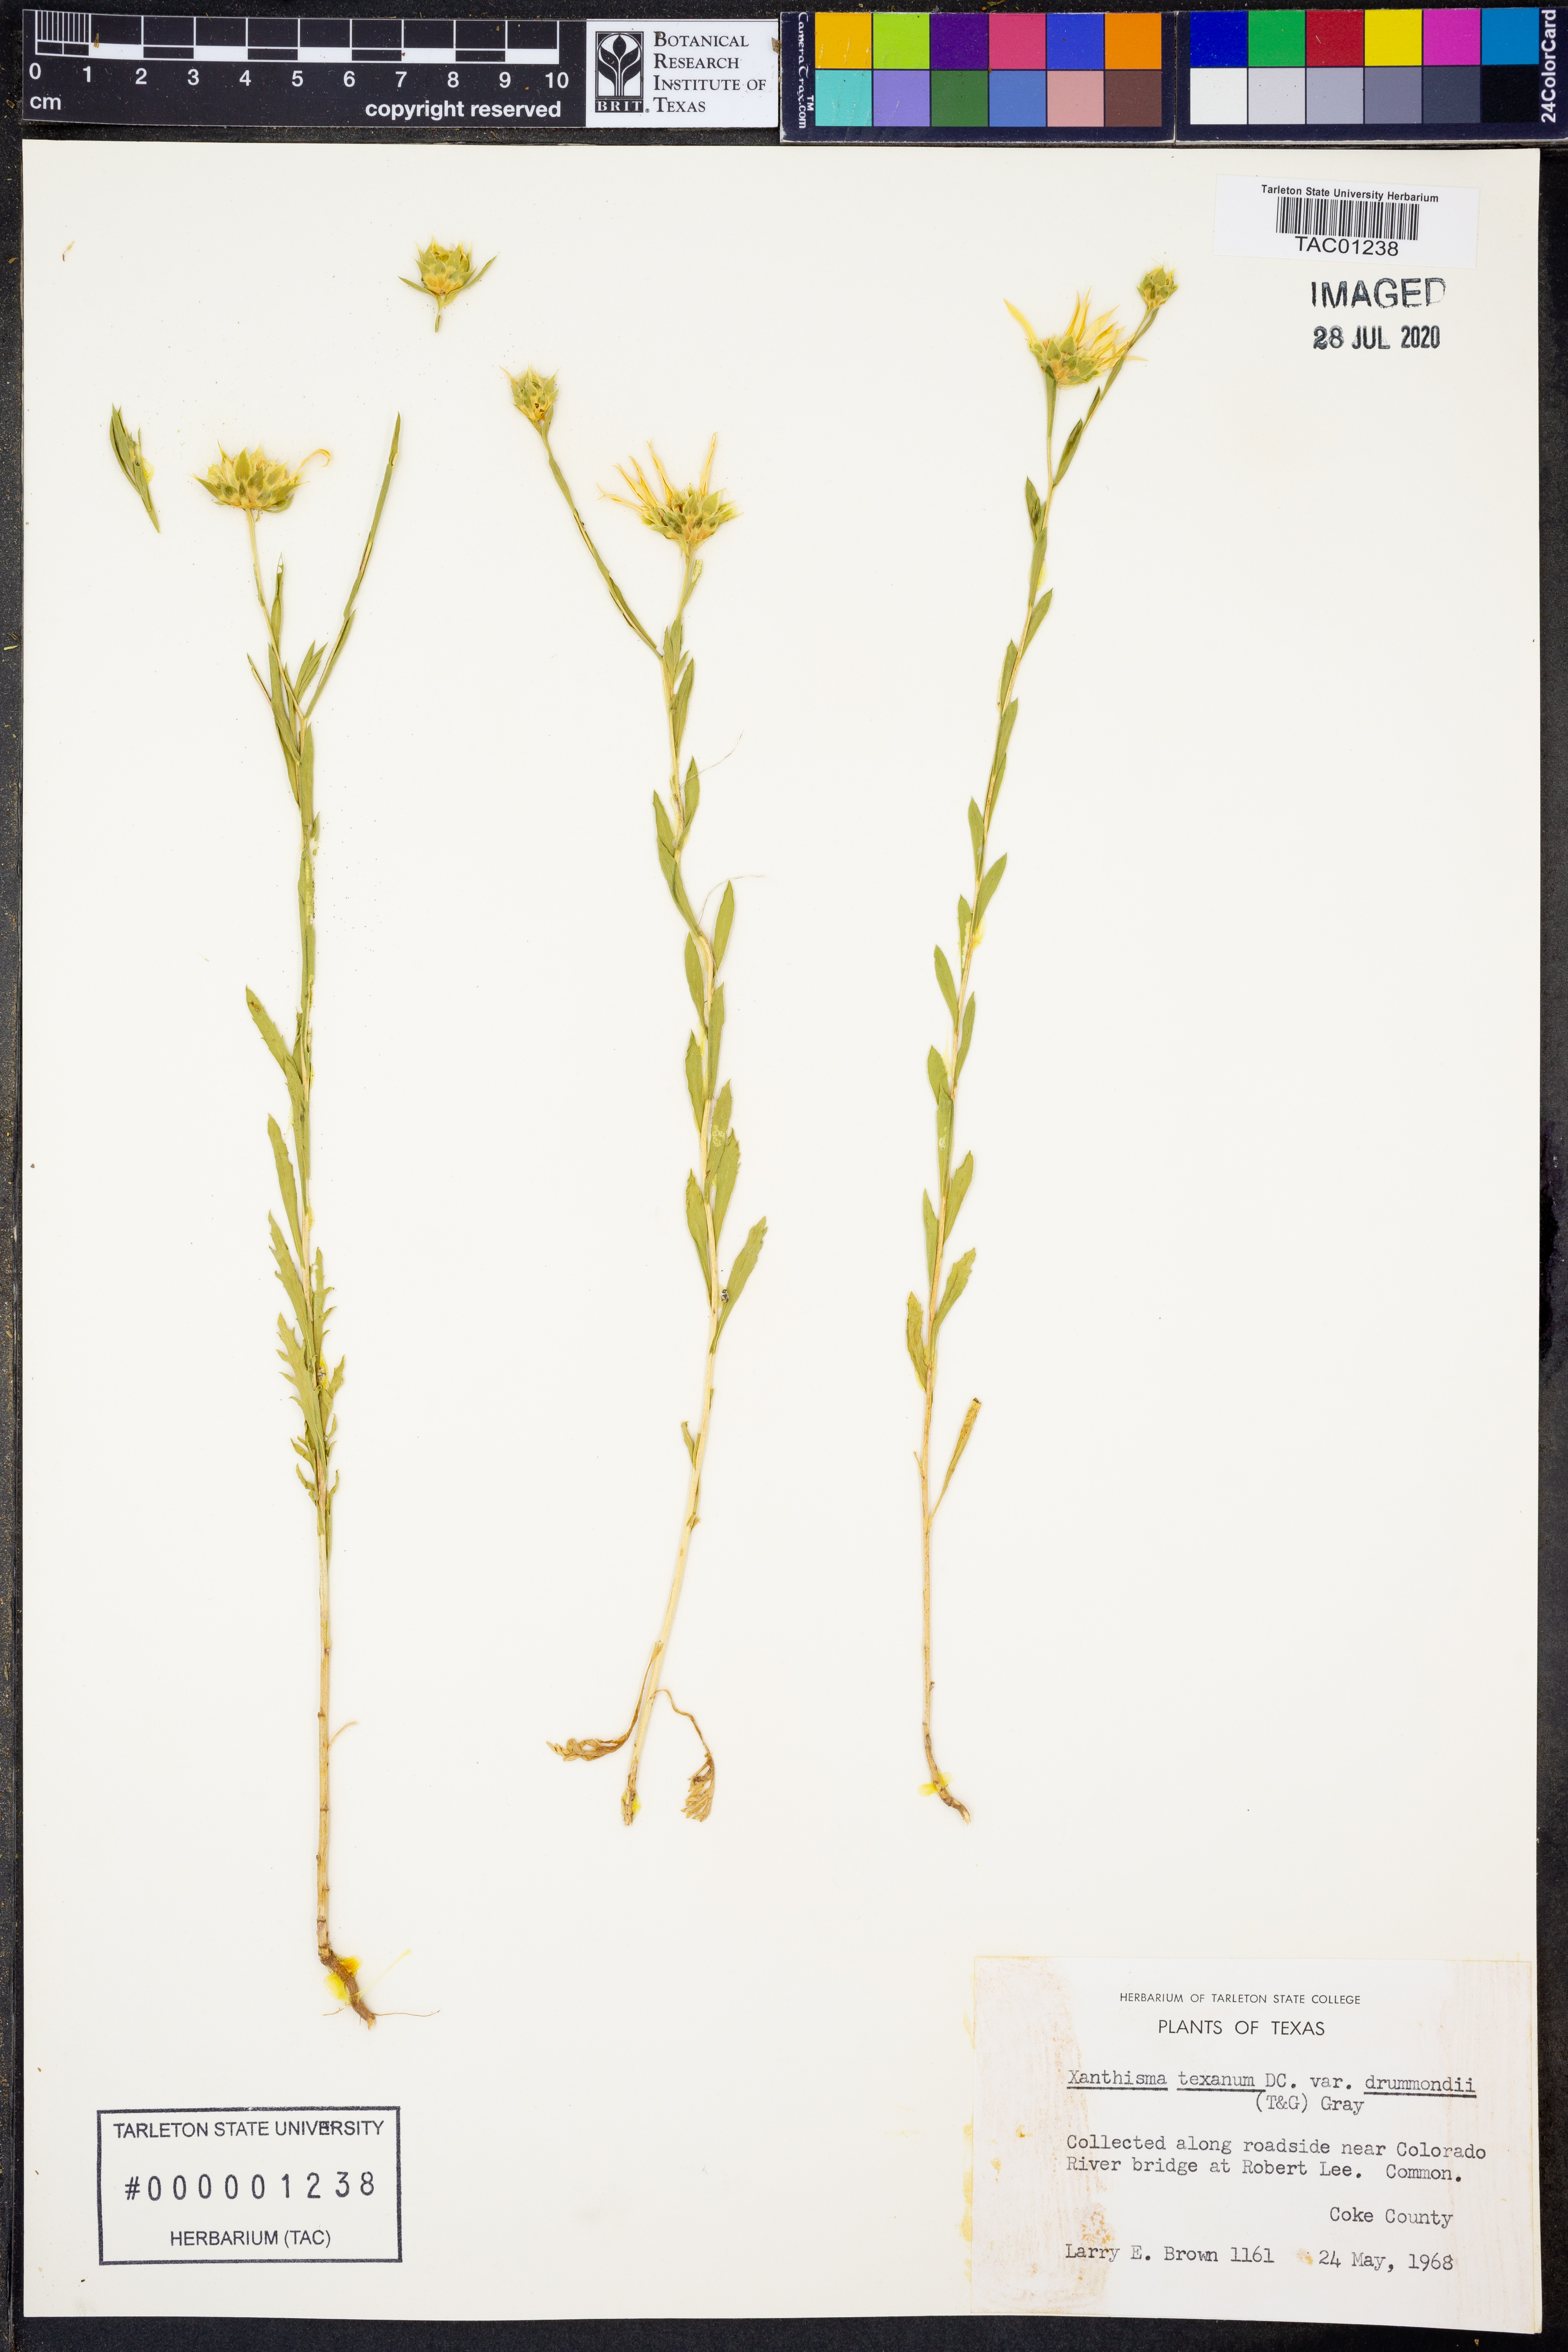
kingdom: Plantae
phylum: Tracheophyta
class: Magnoliopsida
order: Asterales
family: Asteraceae
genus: Xanthisma
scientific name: Xanthisma texanum
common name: Texas sleepy daisy
